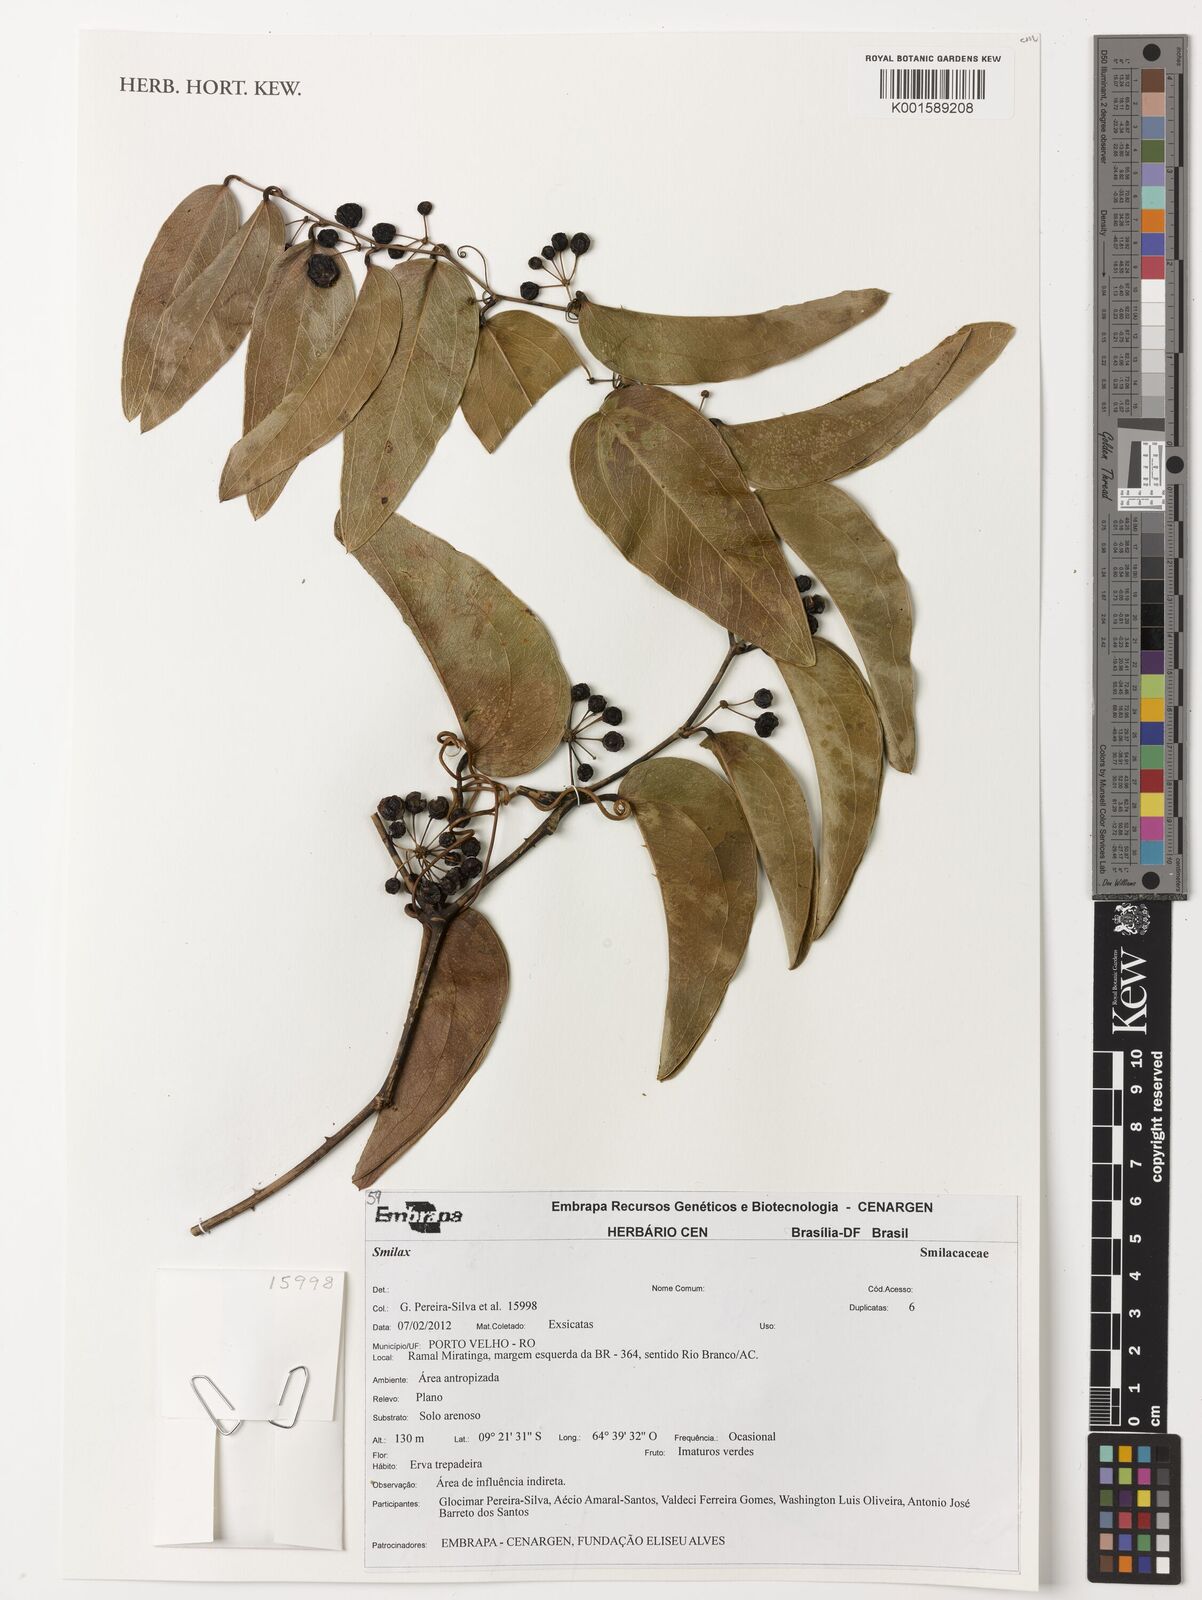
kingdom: Plantae
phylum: Tracheophyta
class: Liliopsida
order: Liliales
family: Smilacaceae
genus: Smilax
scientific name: Smilax
